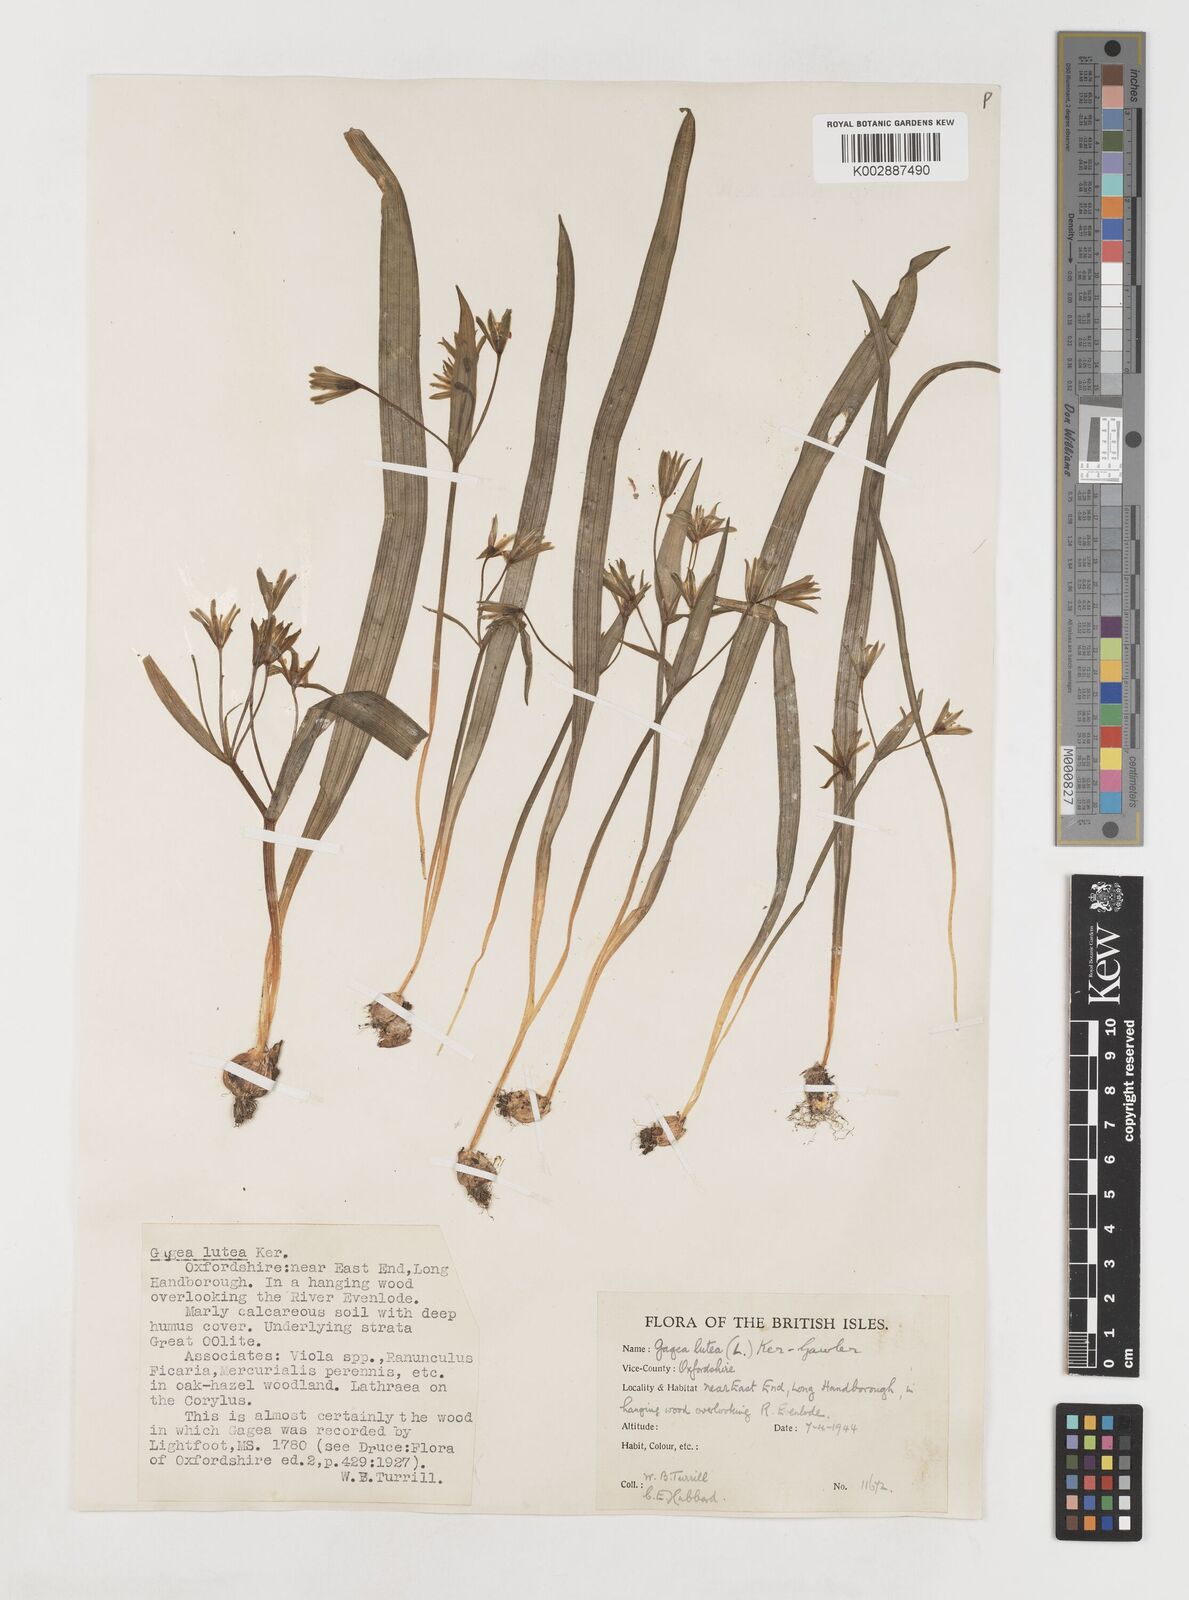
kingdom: Plantae
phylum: Tracheophyta
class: Liliopsida
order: Liliales
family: Liliaceae
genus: Gagea
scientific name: Gagea lutea
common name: Yellow star-of-bethlehem
